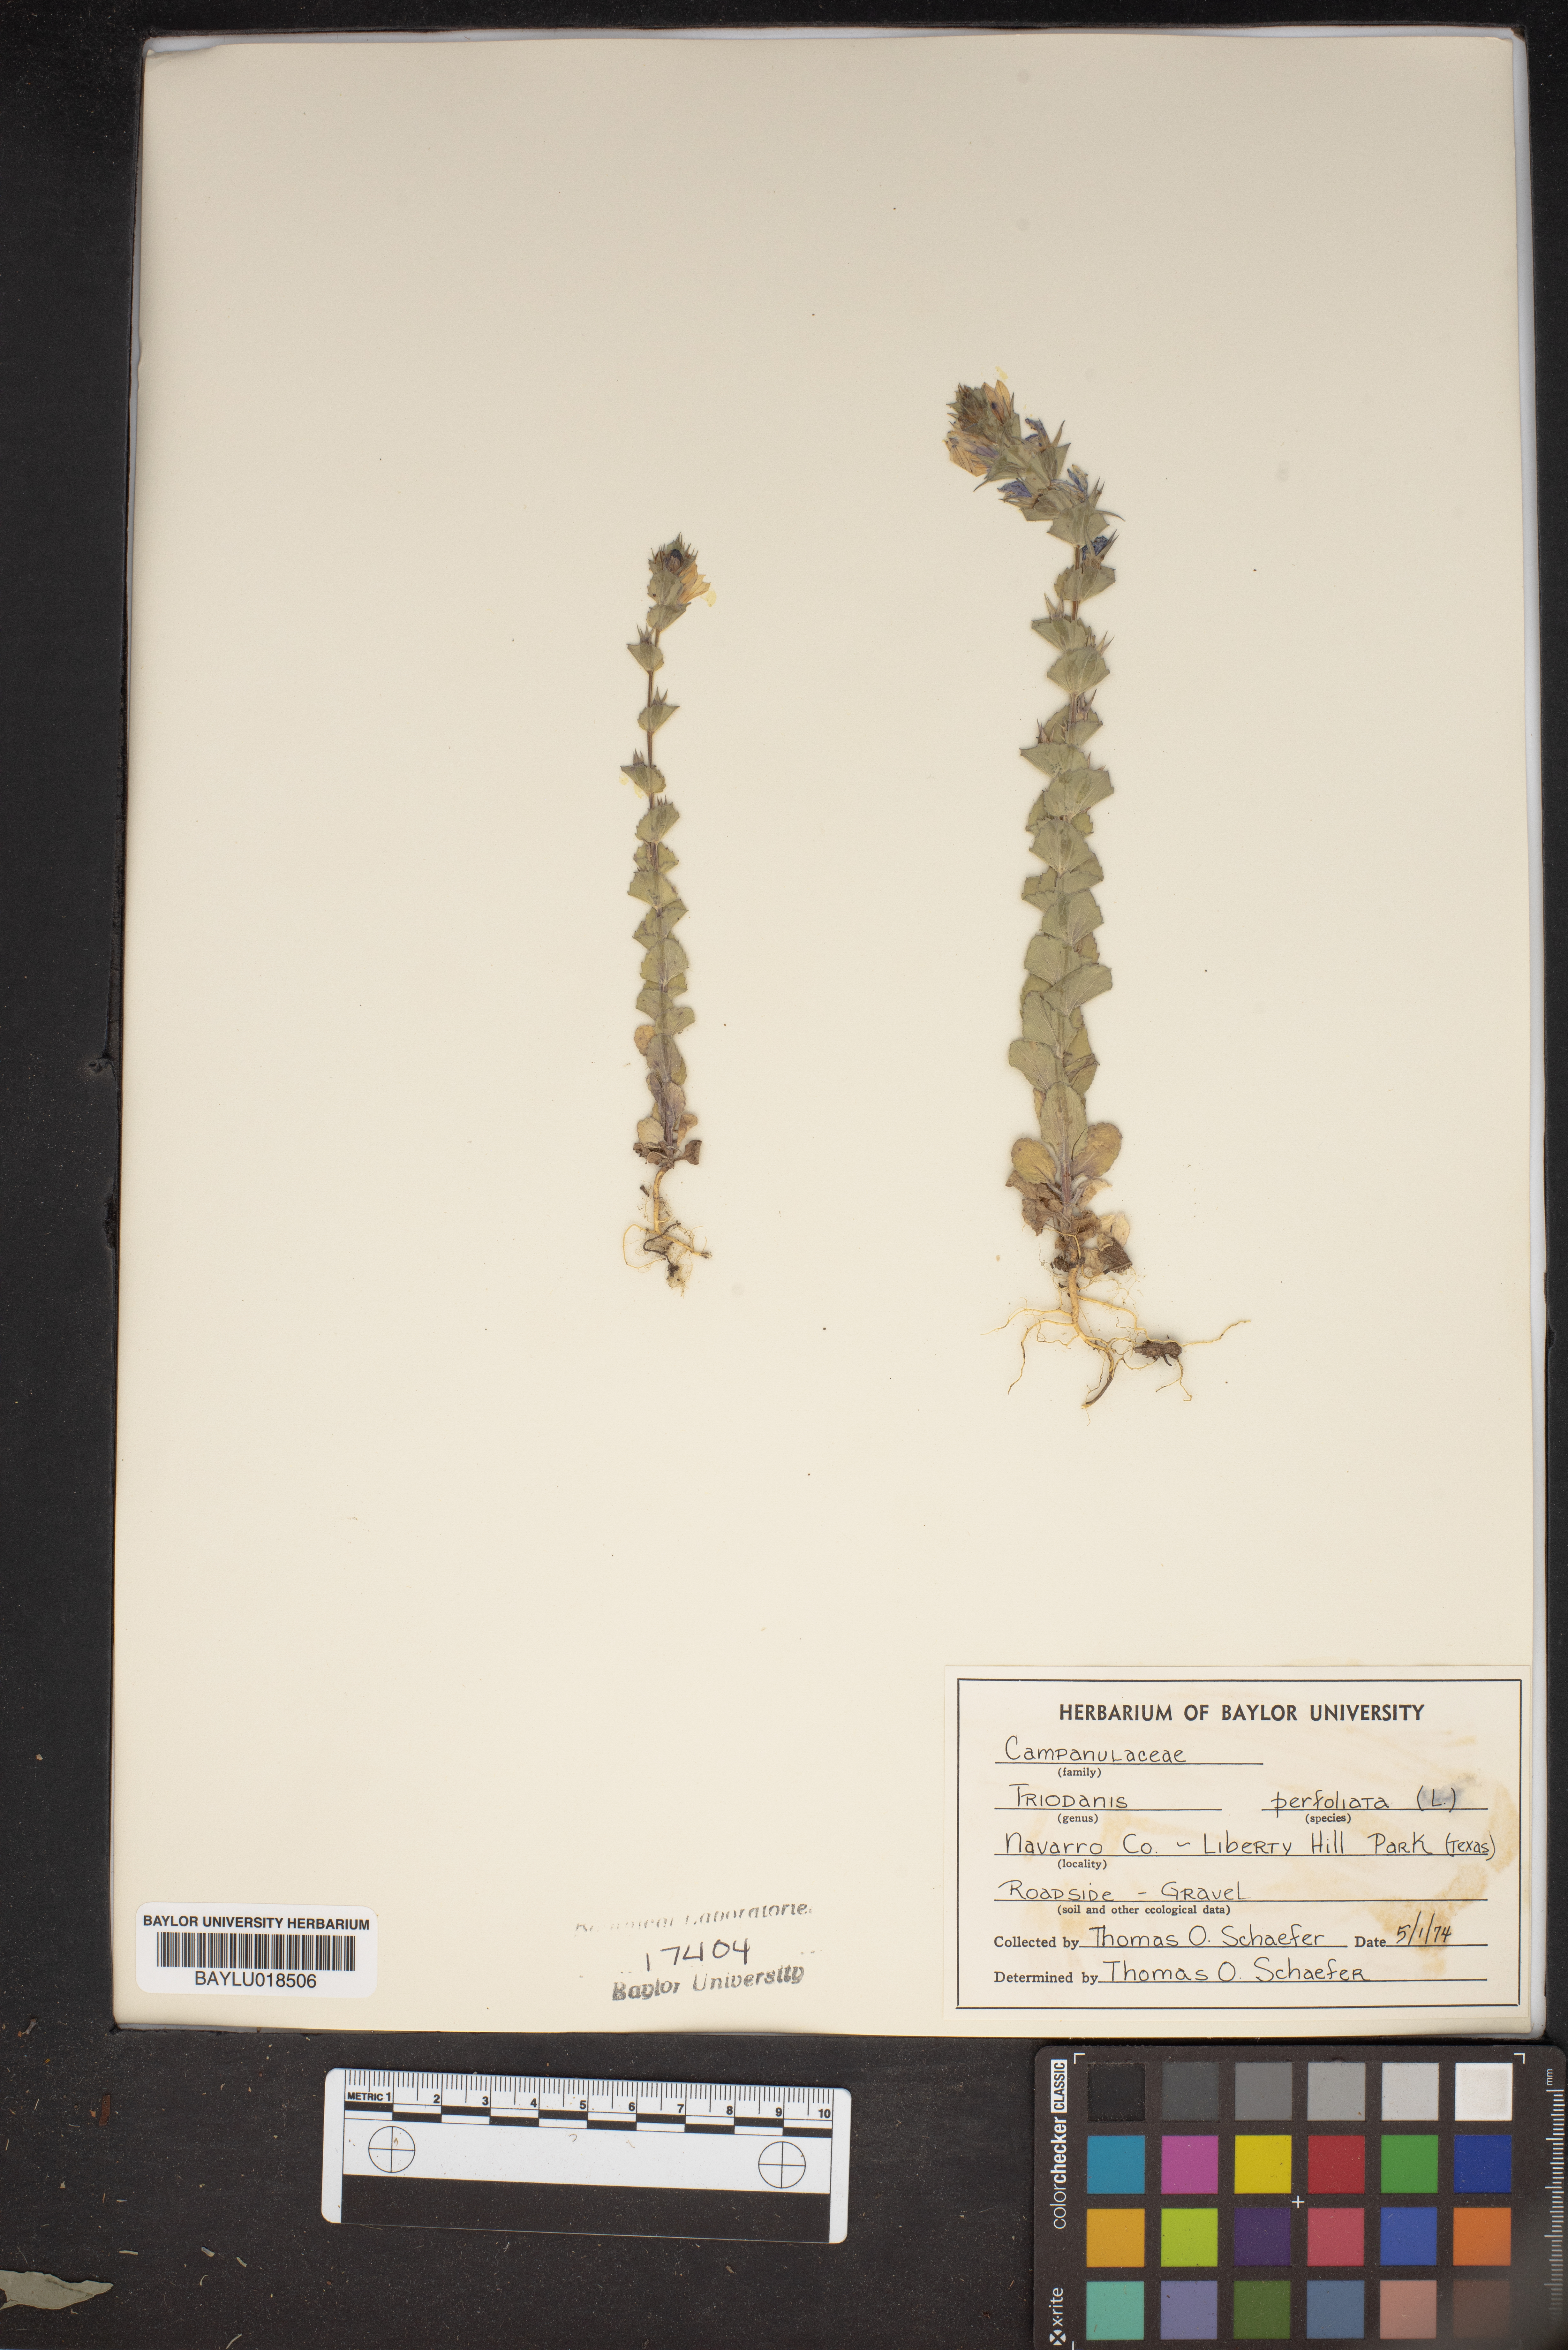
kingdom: Plantae
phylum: Tracheophyta
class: Magnoliopsida
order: Asterales
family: Campanulaceae
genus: Triodanis
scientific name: Triodanis perfoliata
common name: Clasping venus' looking-glass
